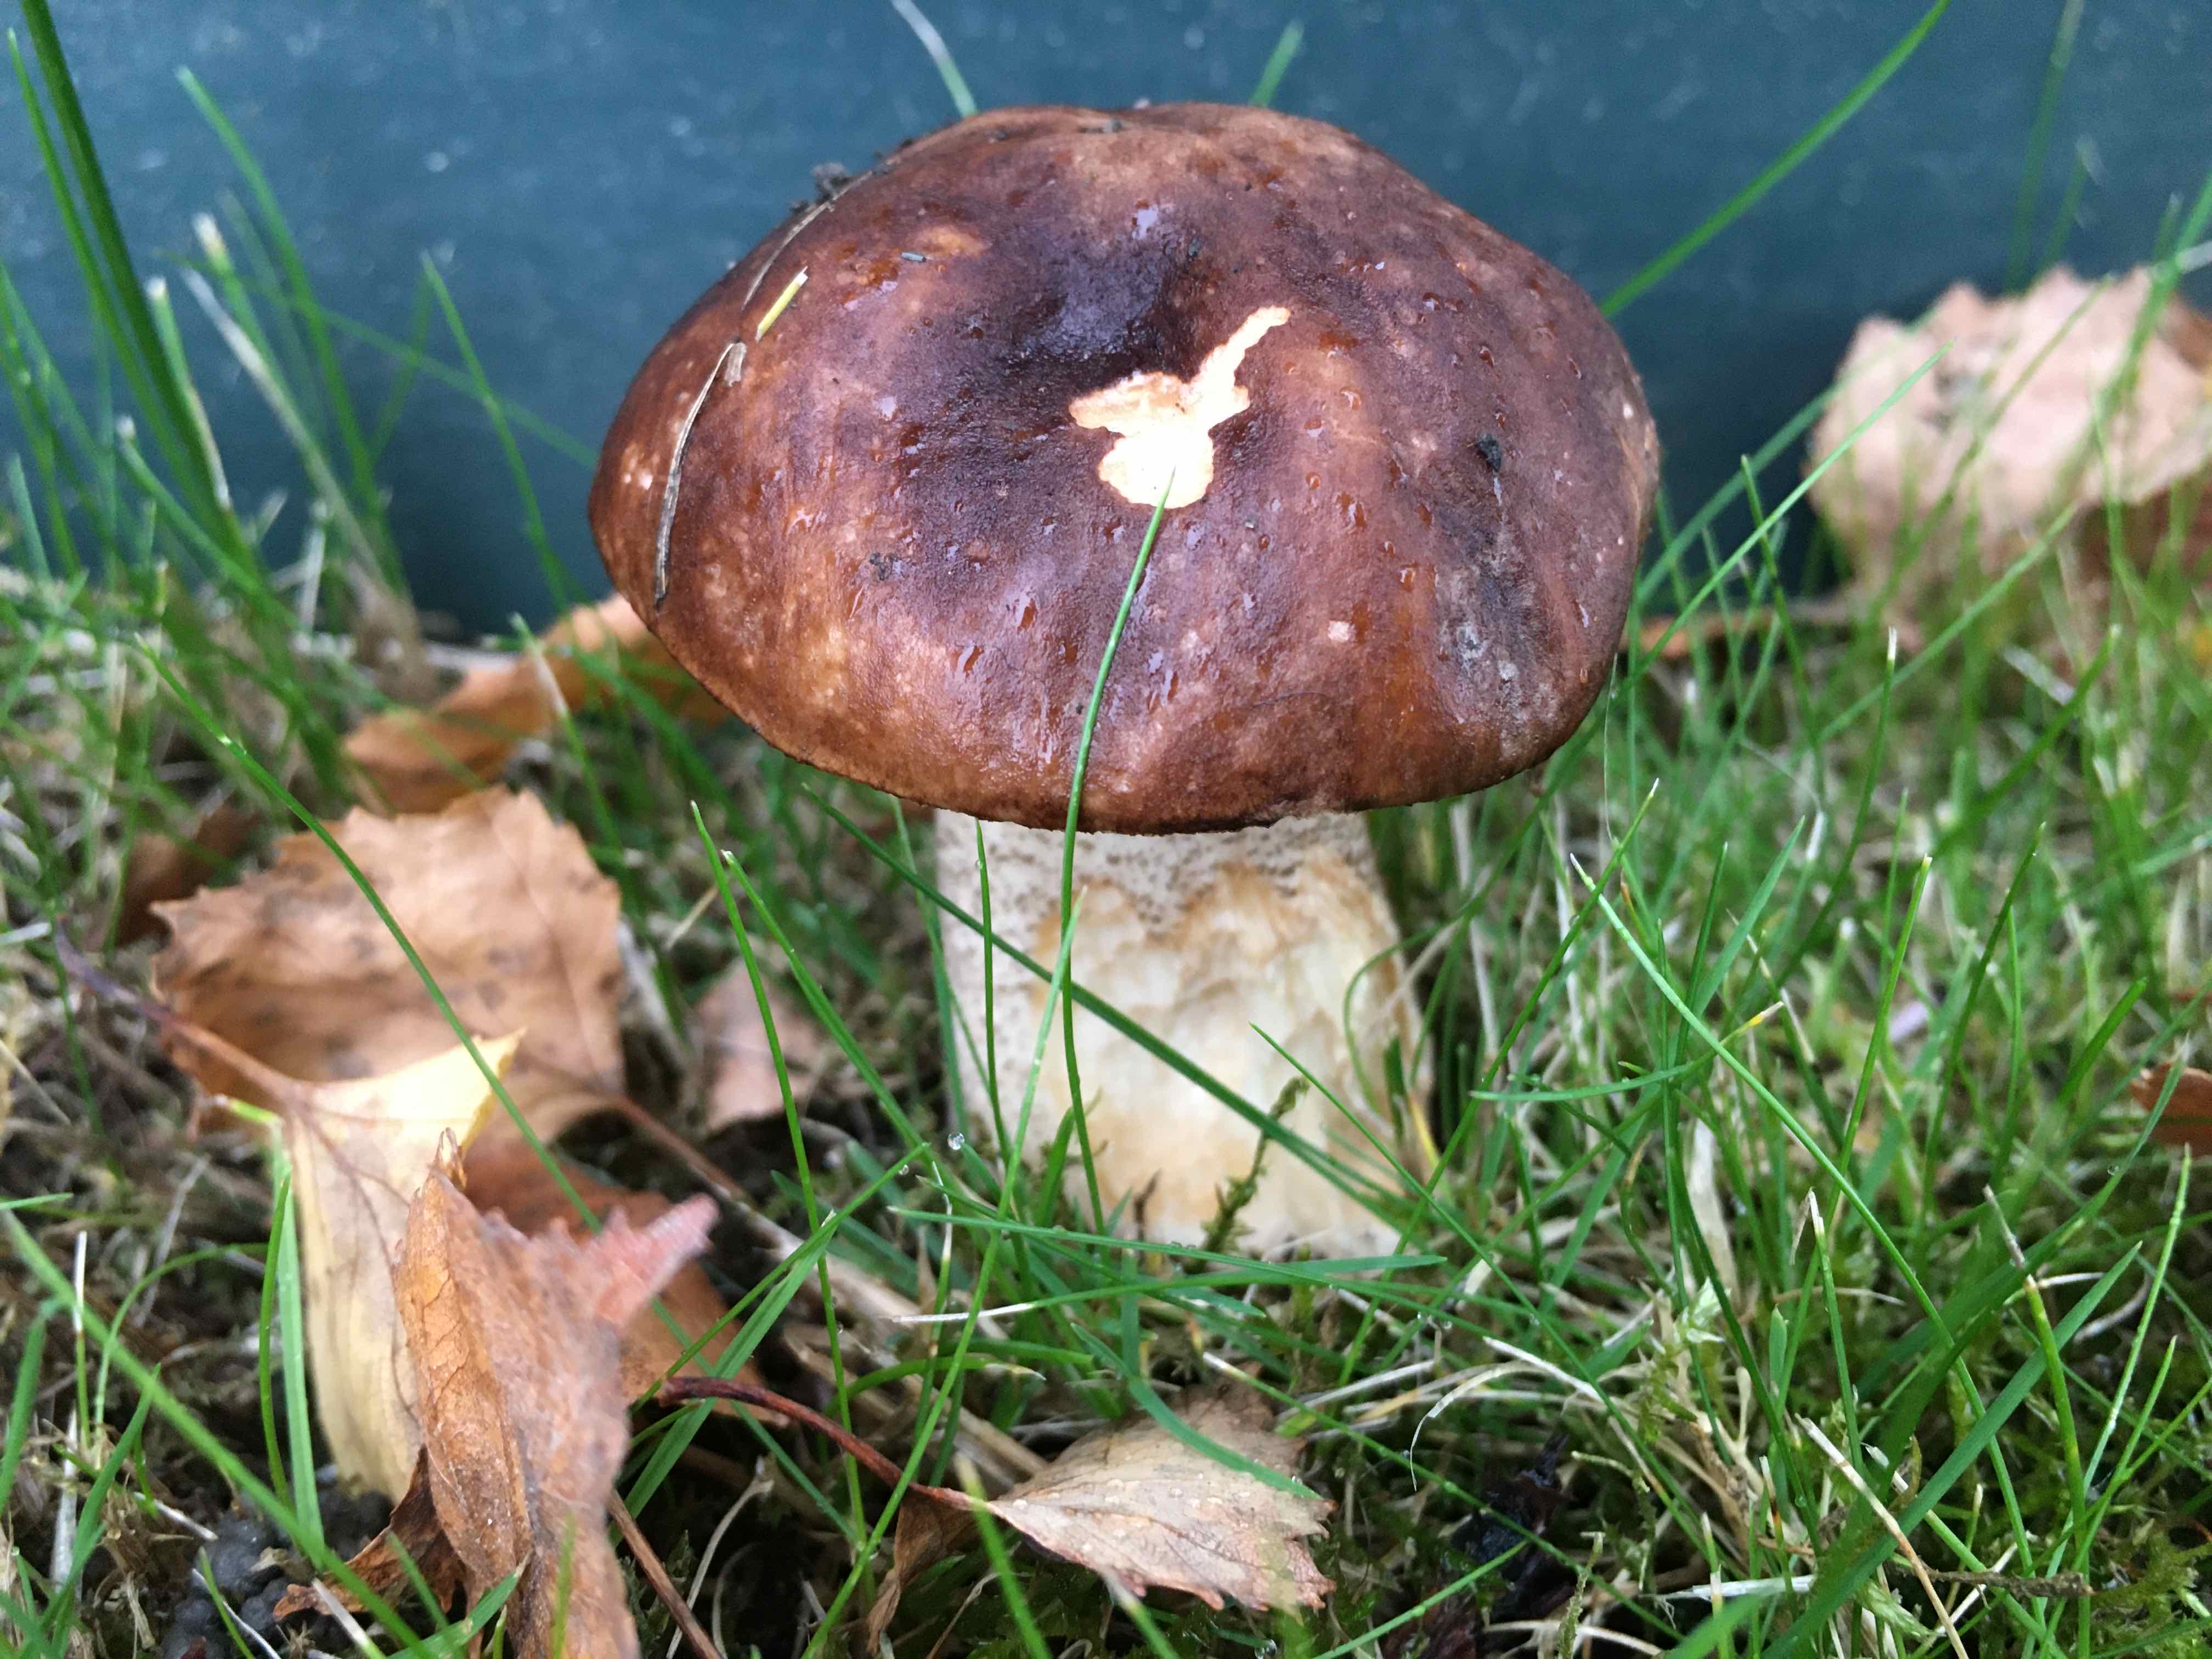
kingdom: Fungi
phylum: Basidiomycota
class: Agaricomycetes
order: Boletales
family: Boletaceae
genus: Leccinum
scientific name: Leccinum
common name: skælrørhat
